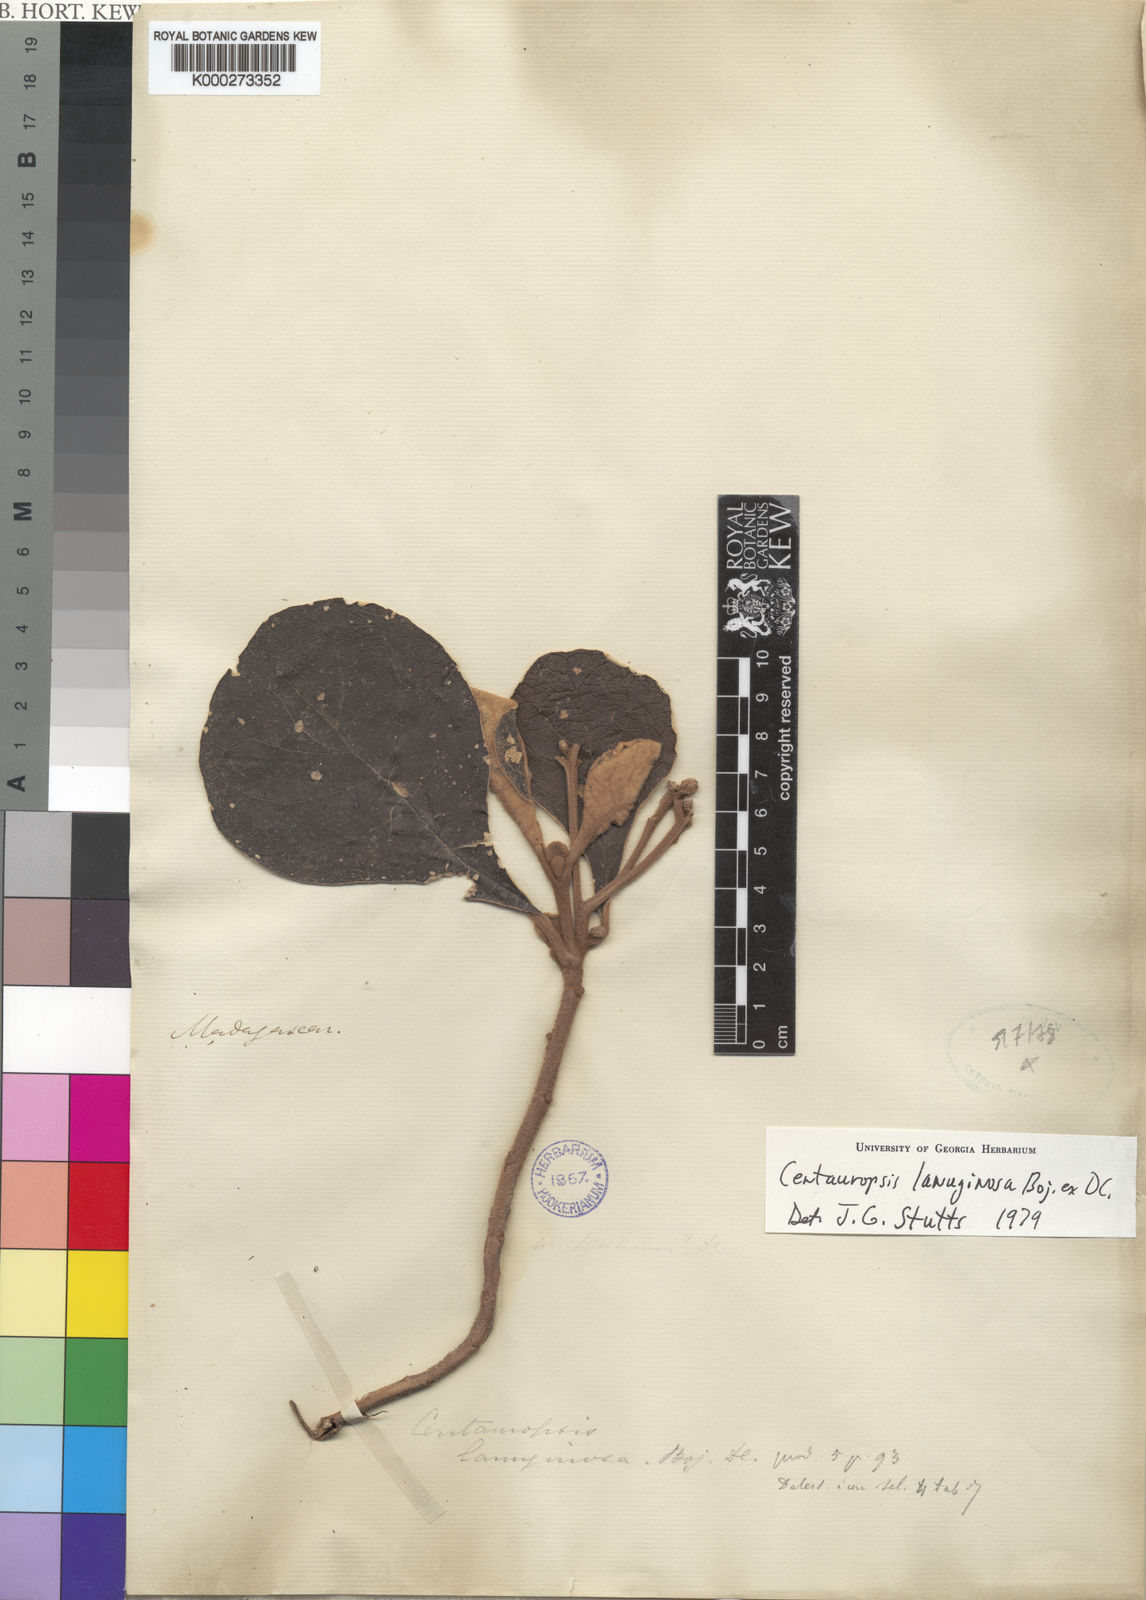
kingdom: Plantae
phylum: Tracheophyta
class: Magnoliopsida
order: Asterales
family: Asteraceae
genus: Centauropsis
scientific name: Centauropsis
